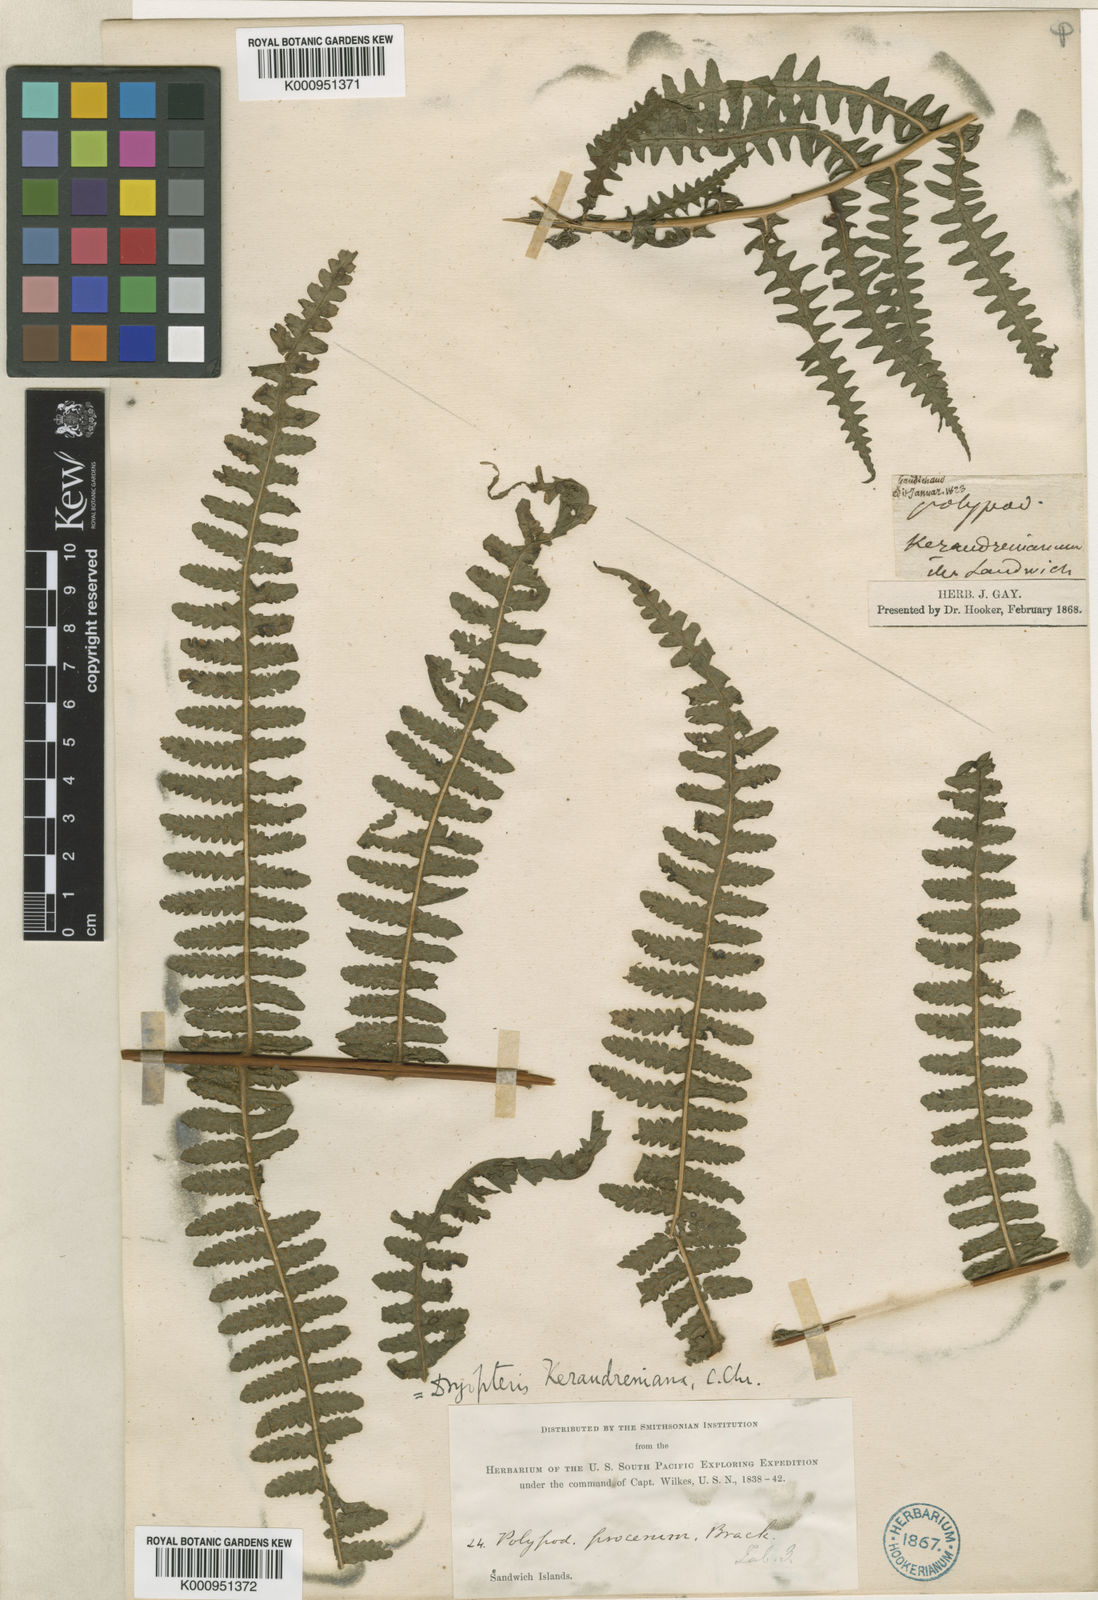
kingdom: Plantae
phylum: Tracheophyta
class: Polypodiopsida
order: Polypodiales
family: Thelypteridaceae
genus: Pseudophegopteris
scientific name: Pseudophegopteris keraudreniana
